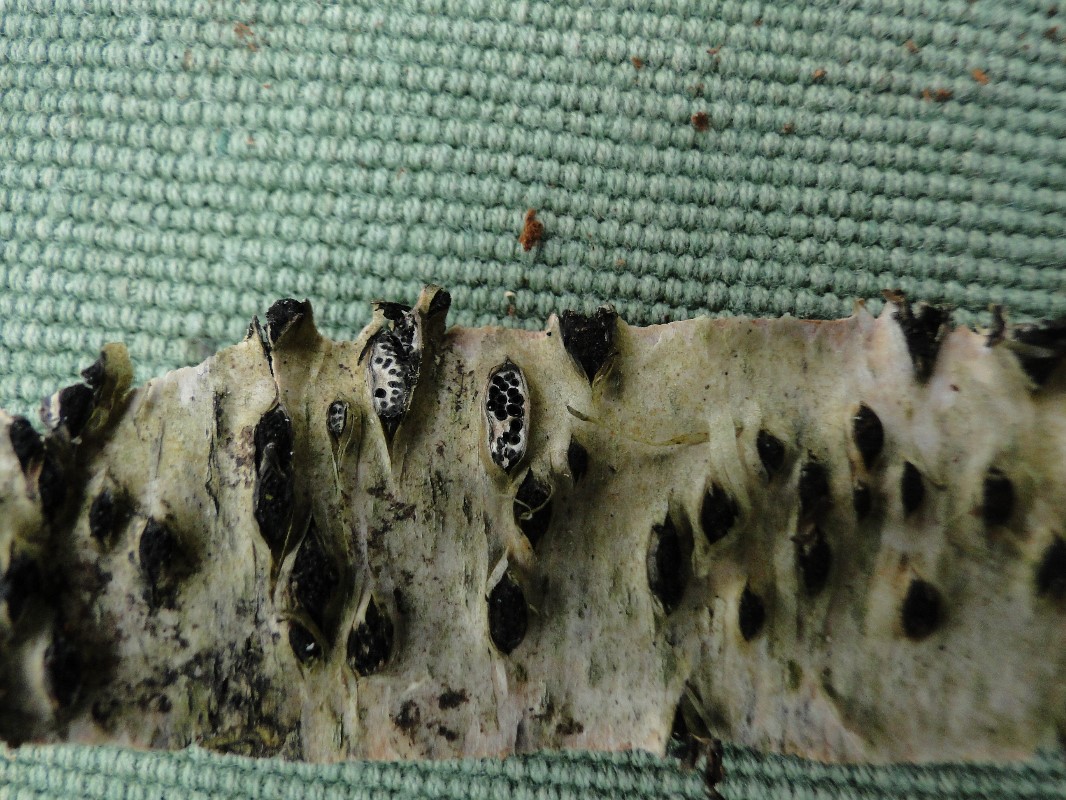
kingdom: Fungi
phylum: Ascomycota
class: Sordariomycetes
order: Xylariales
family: Diatrypaceae
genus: Diatrypella
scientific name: Diatrypella favacea
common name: Birch blackhead
